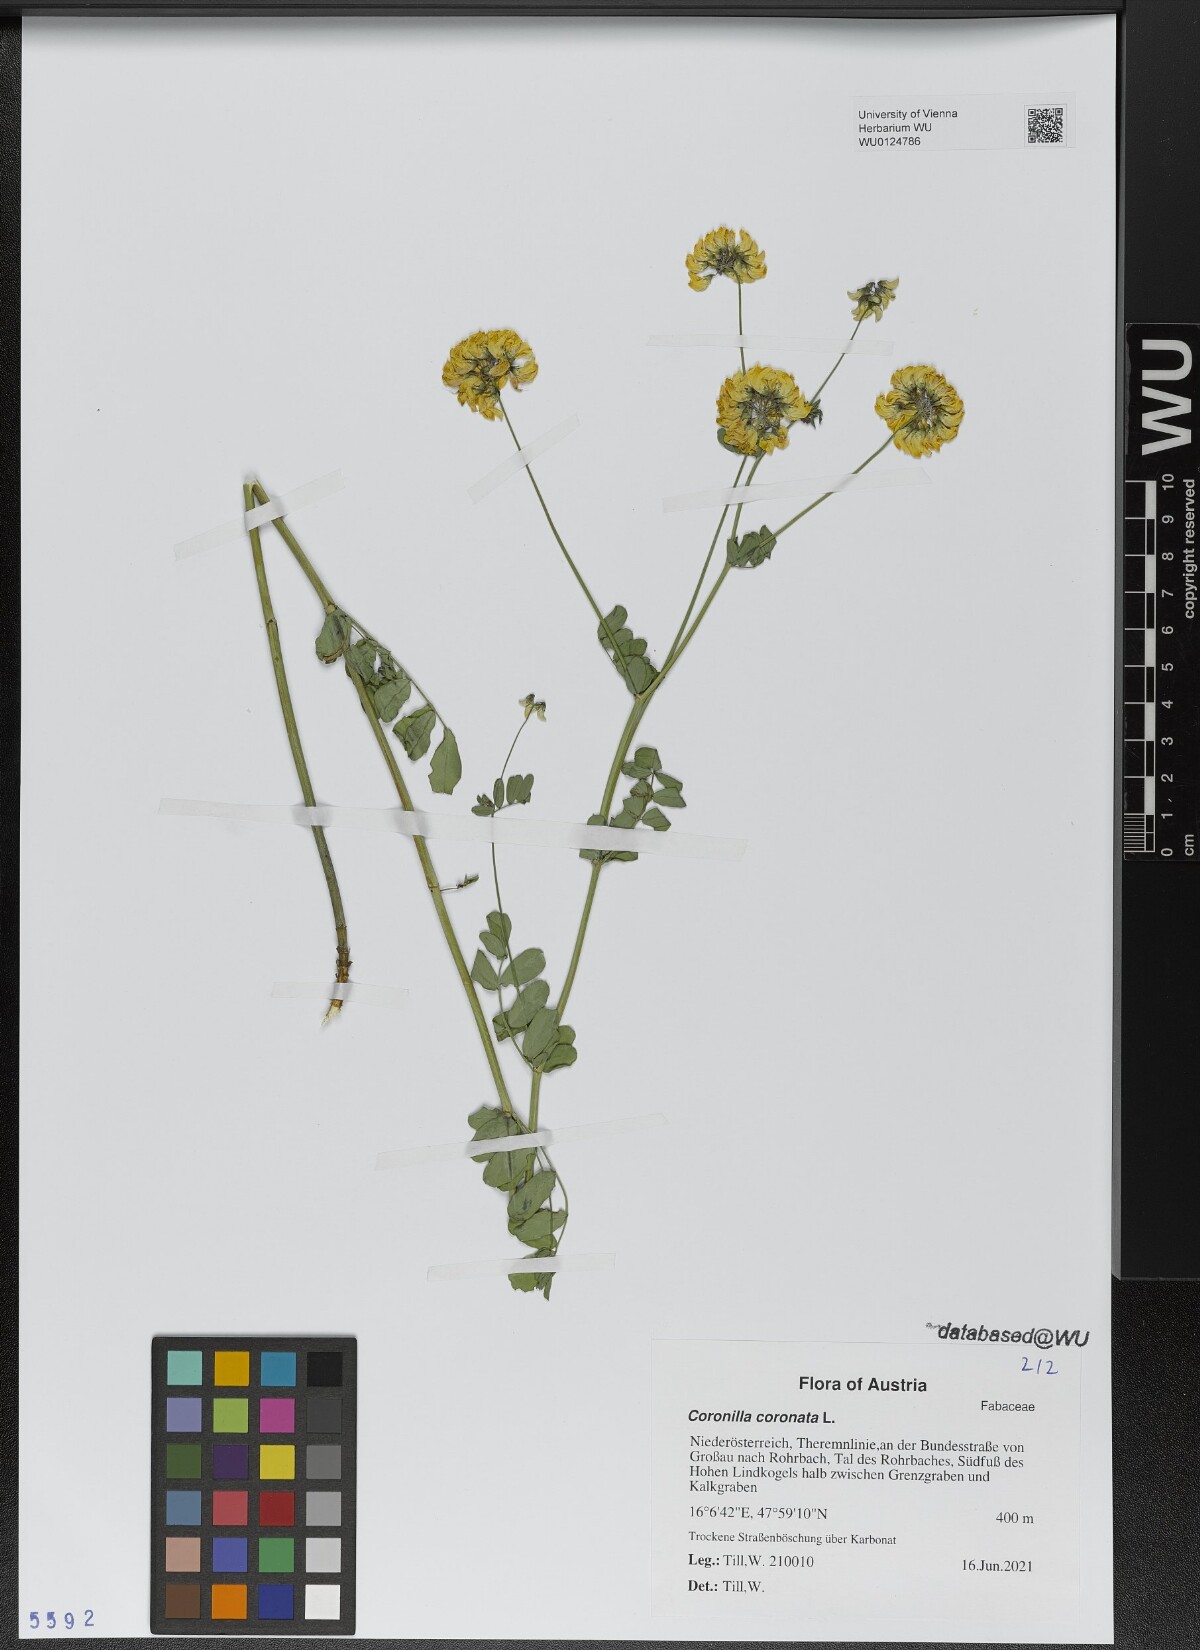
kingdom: Plantae
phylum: Tracheophyta
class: Magnoliopsida
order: Fabales
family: Fabaceae
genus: Coronilla
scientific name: Coronilla coronata
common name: Scorpion-vetch
